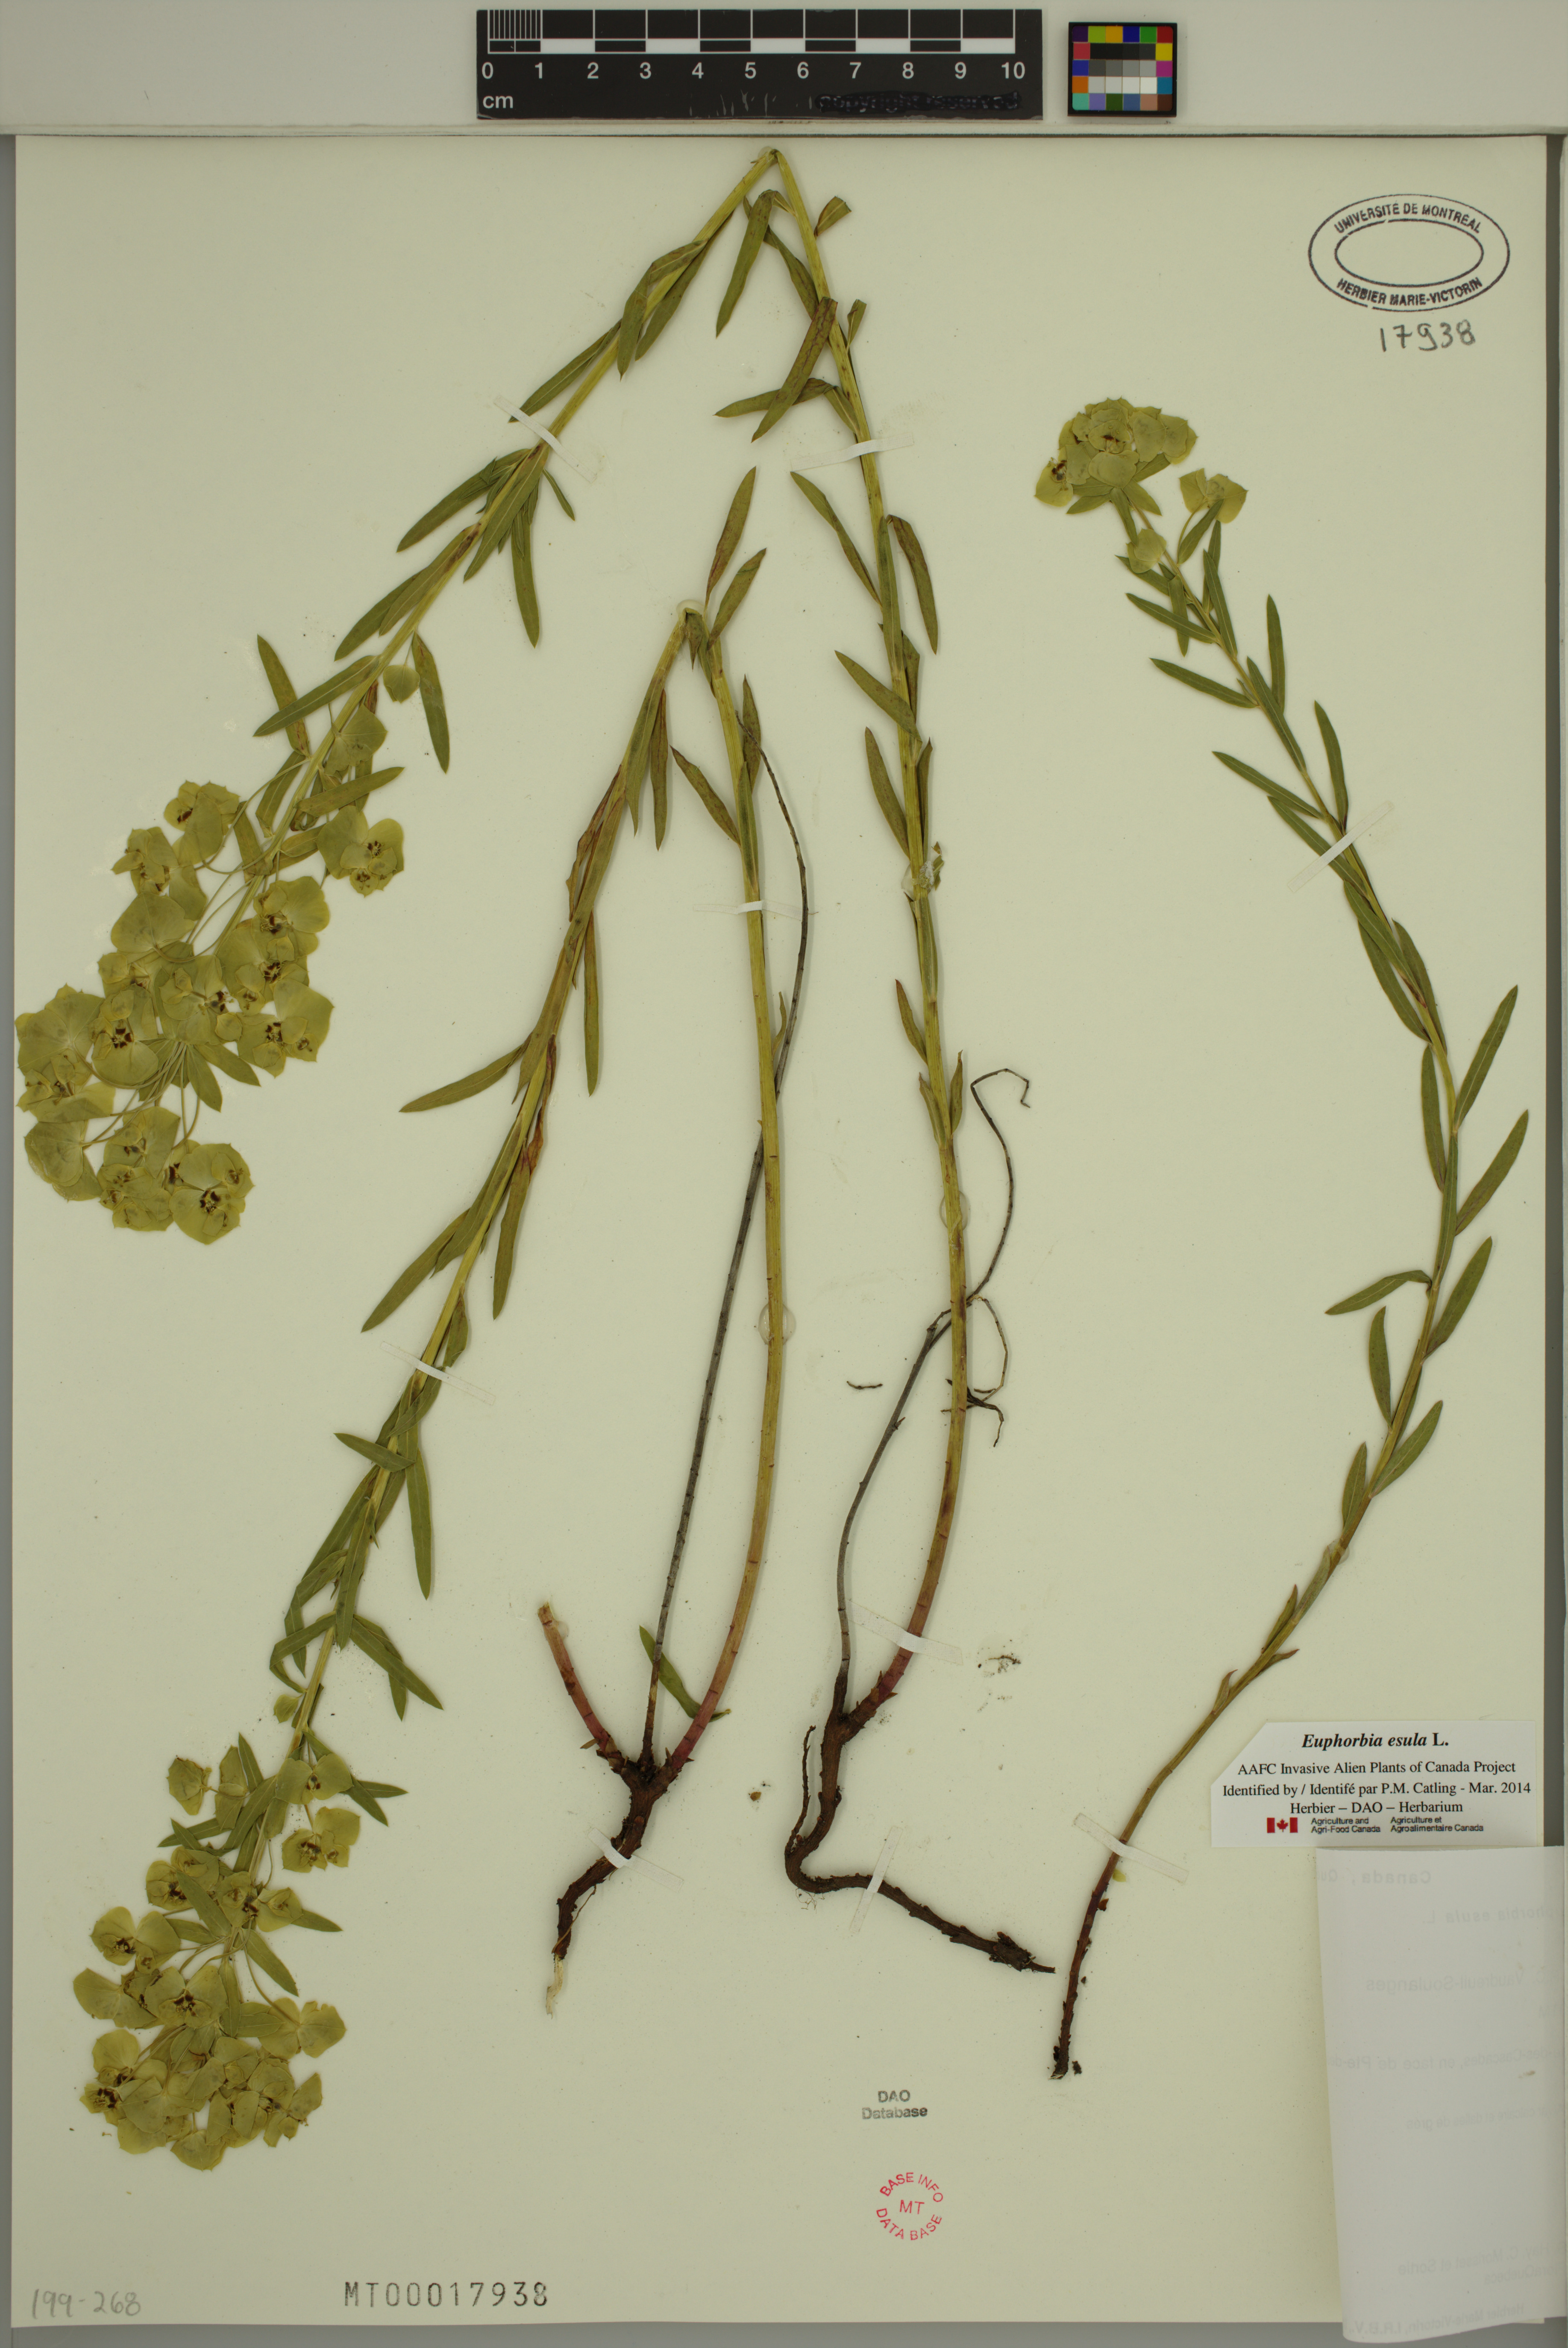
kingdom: Plantae
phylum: Tracheophyta
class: Magnoliopsida
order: Malpighiales
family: Euphorbiaceae
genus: Euphorbia
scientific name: Euphorbia esula
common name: Leafy spurge
